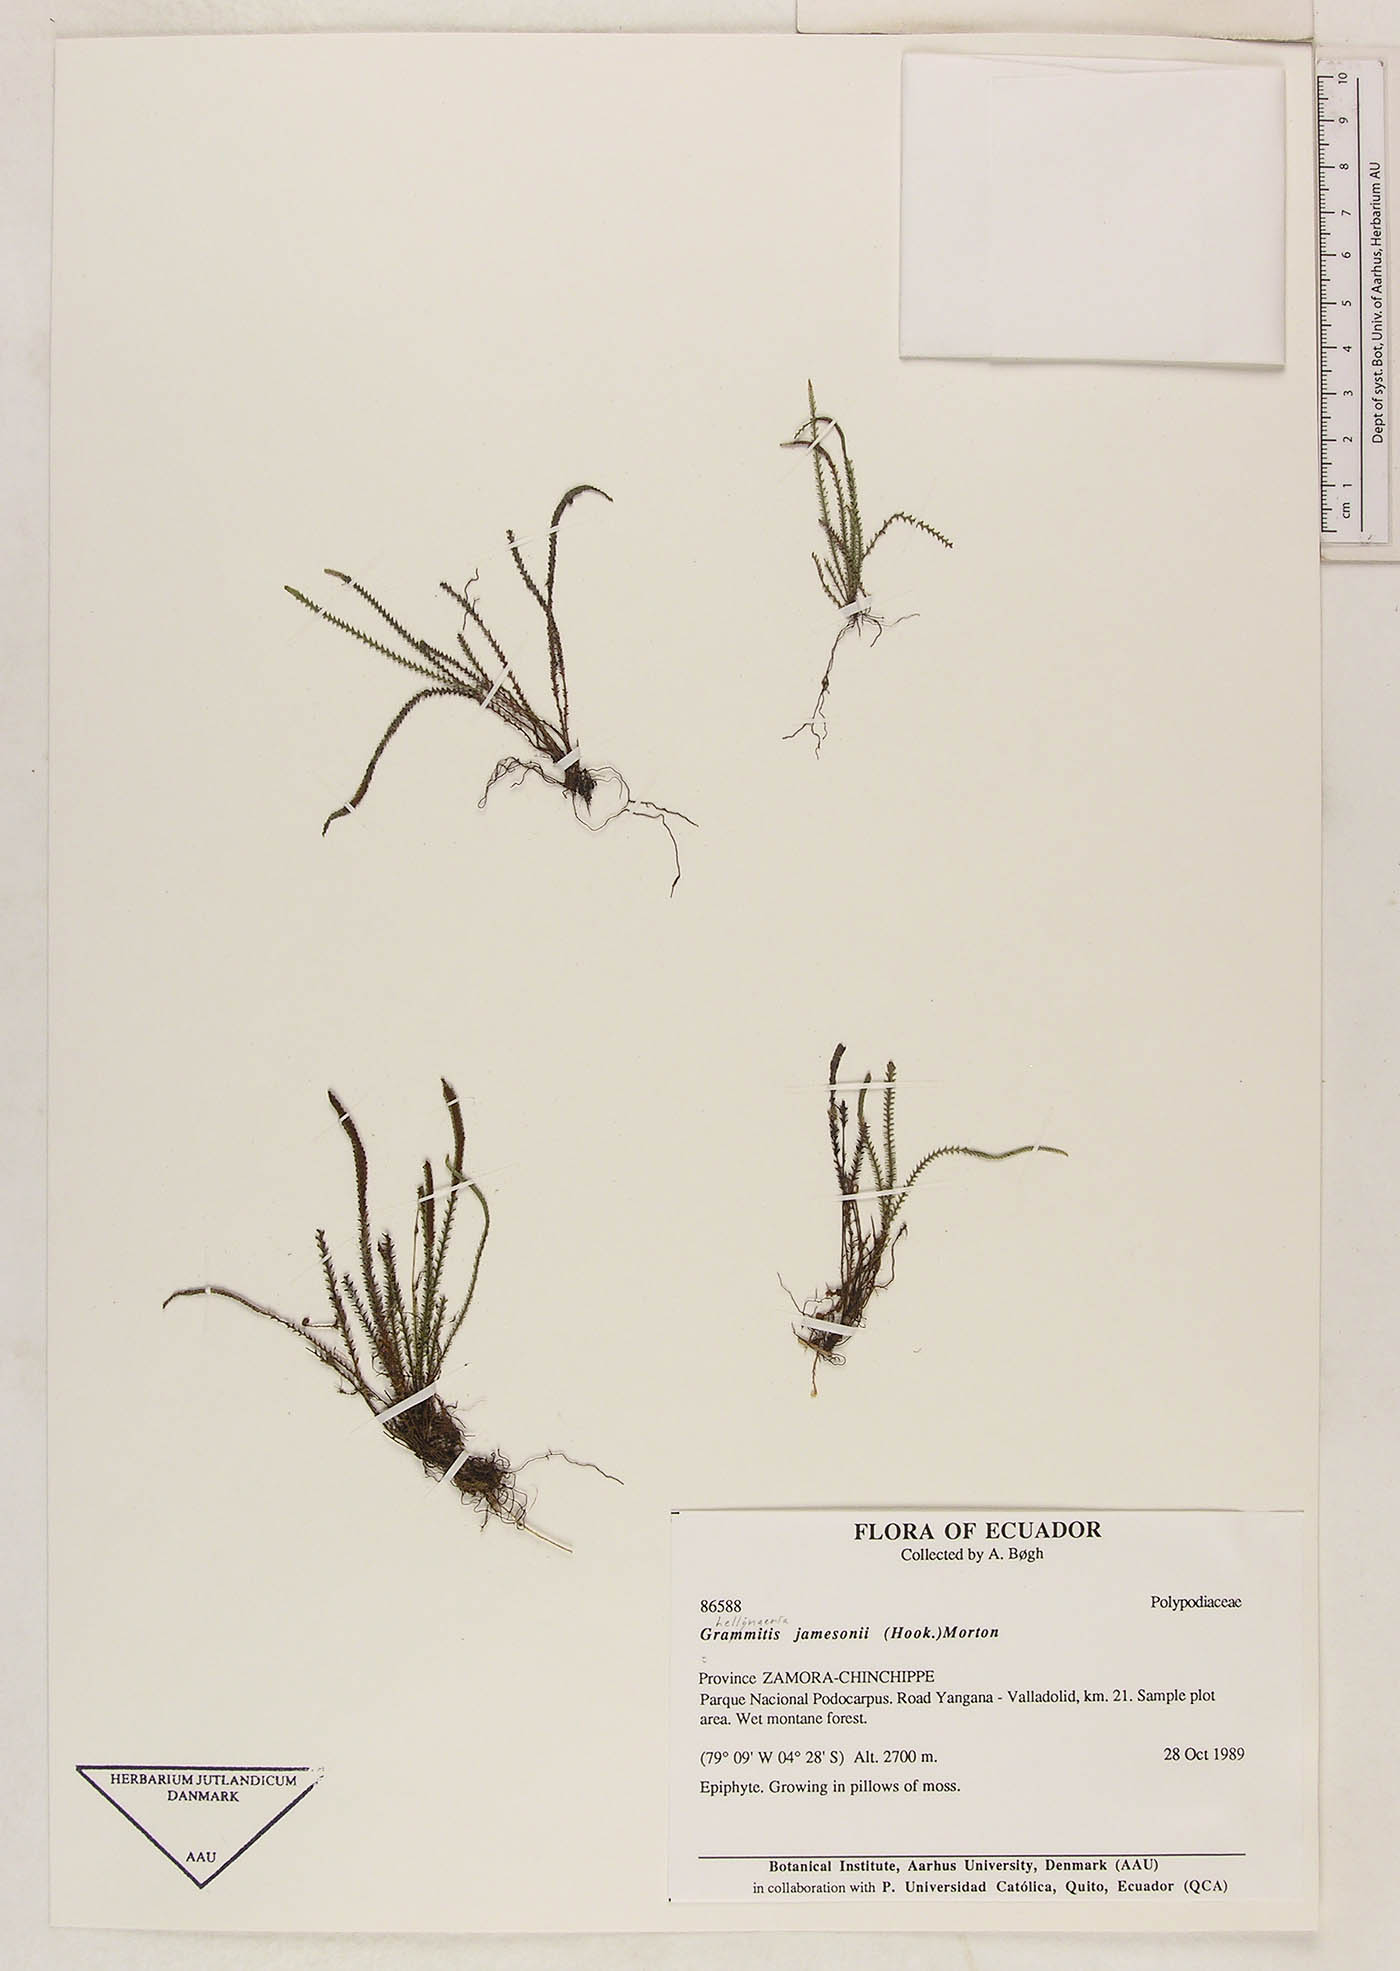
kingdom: Plantae
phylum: Tracheophyta
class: Polypodiopsida
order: Polypodiales
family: Polypodiaceae
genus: Stenogrammitis
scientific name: Stenogrammitis jamesonii
